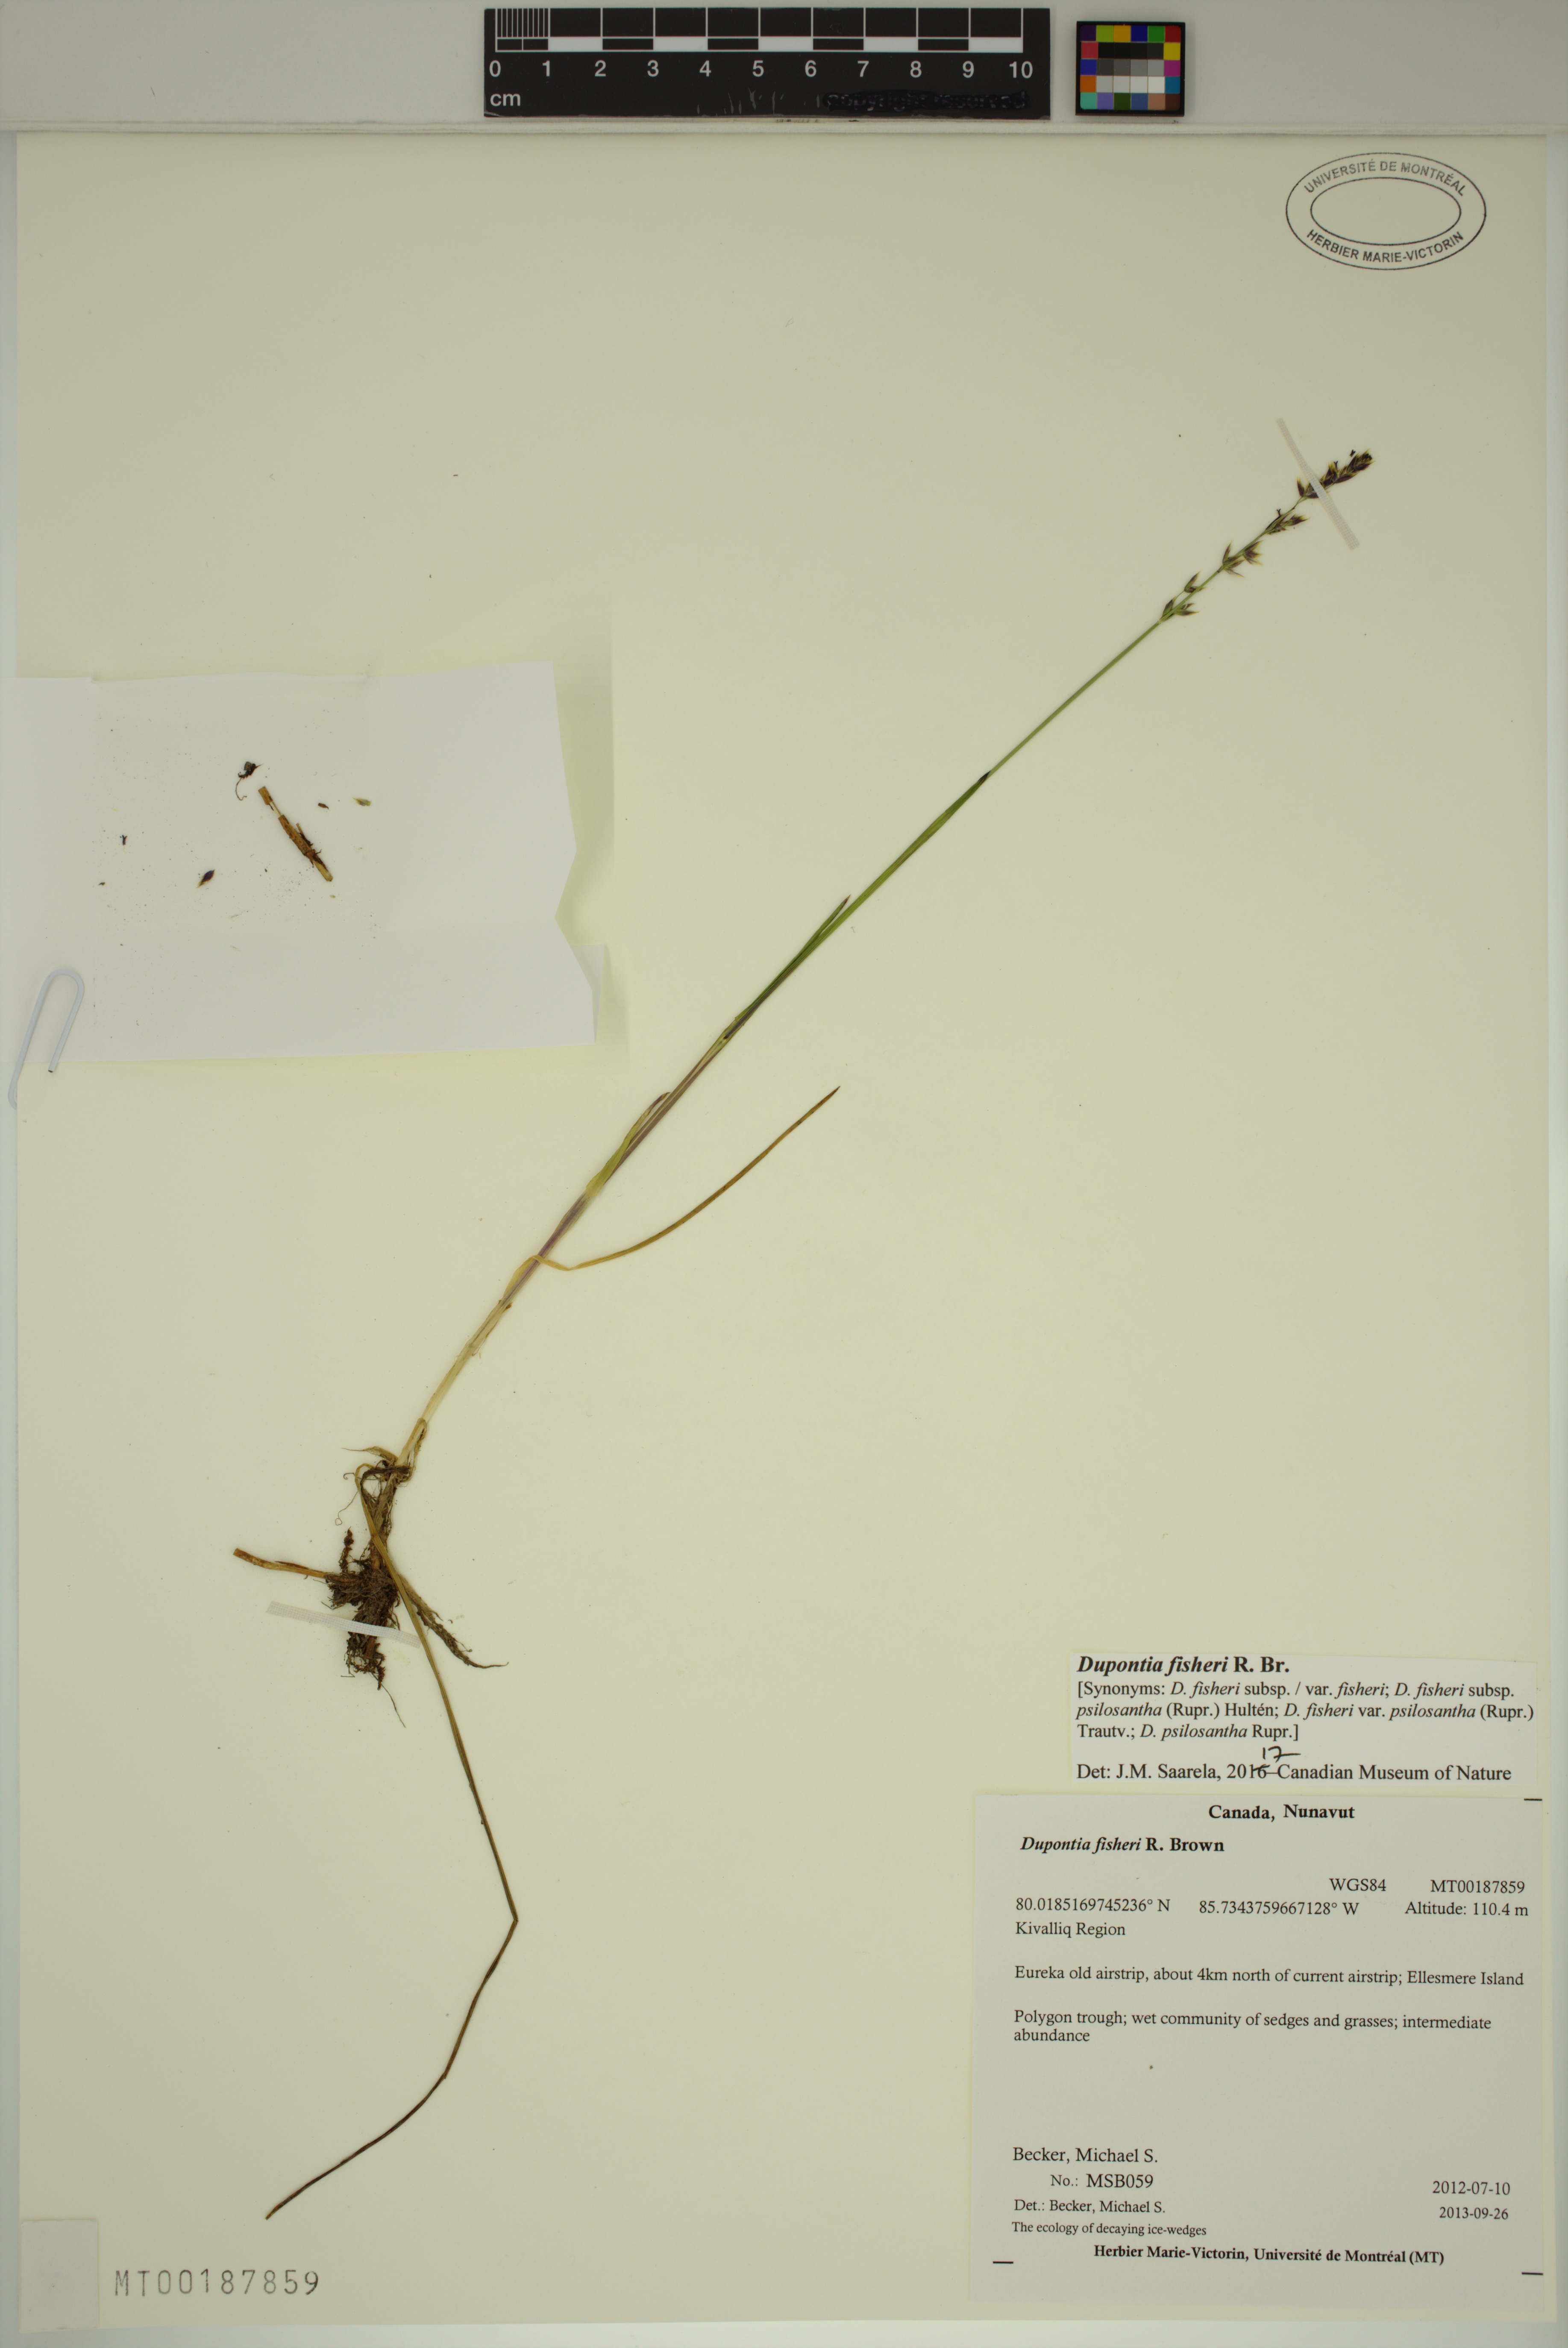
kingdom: Plantae
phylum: Tracheophyta
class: Liliopsida
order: Poales
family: Poaceae
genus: Dupontia
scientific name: Dupontia fisheri
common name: Tundra grass
